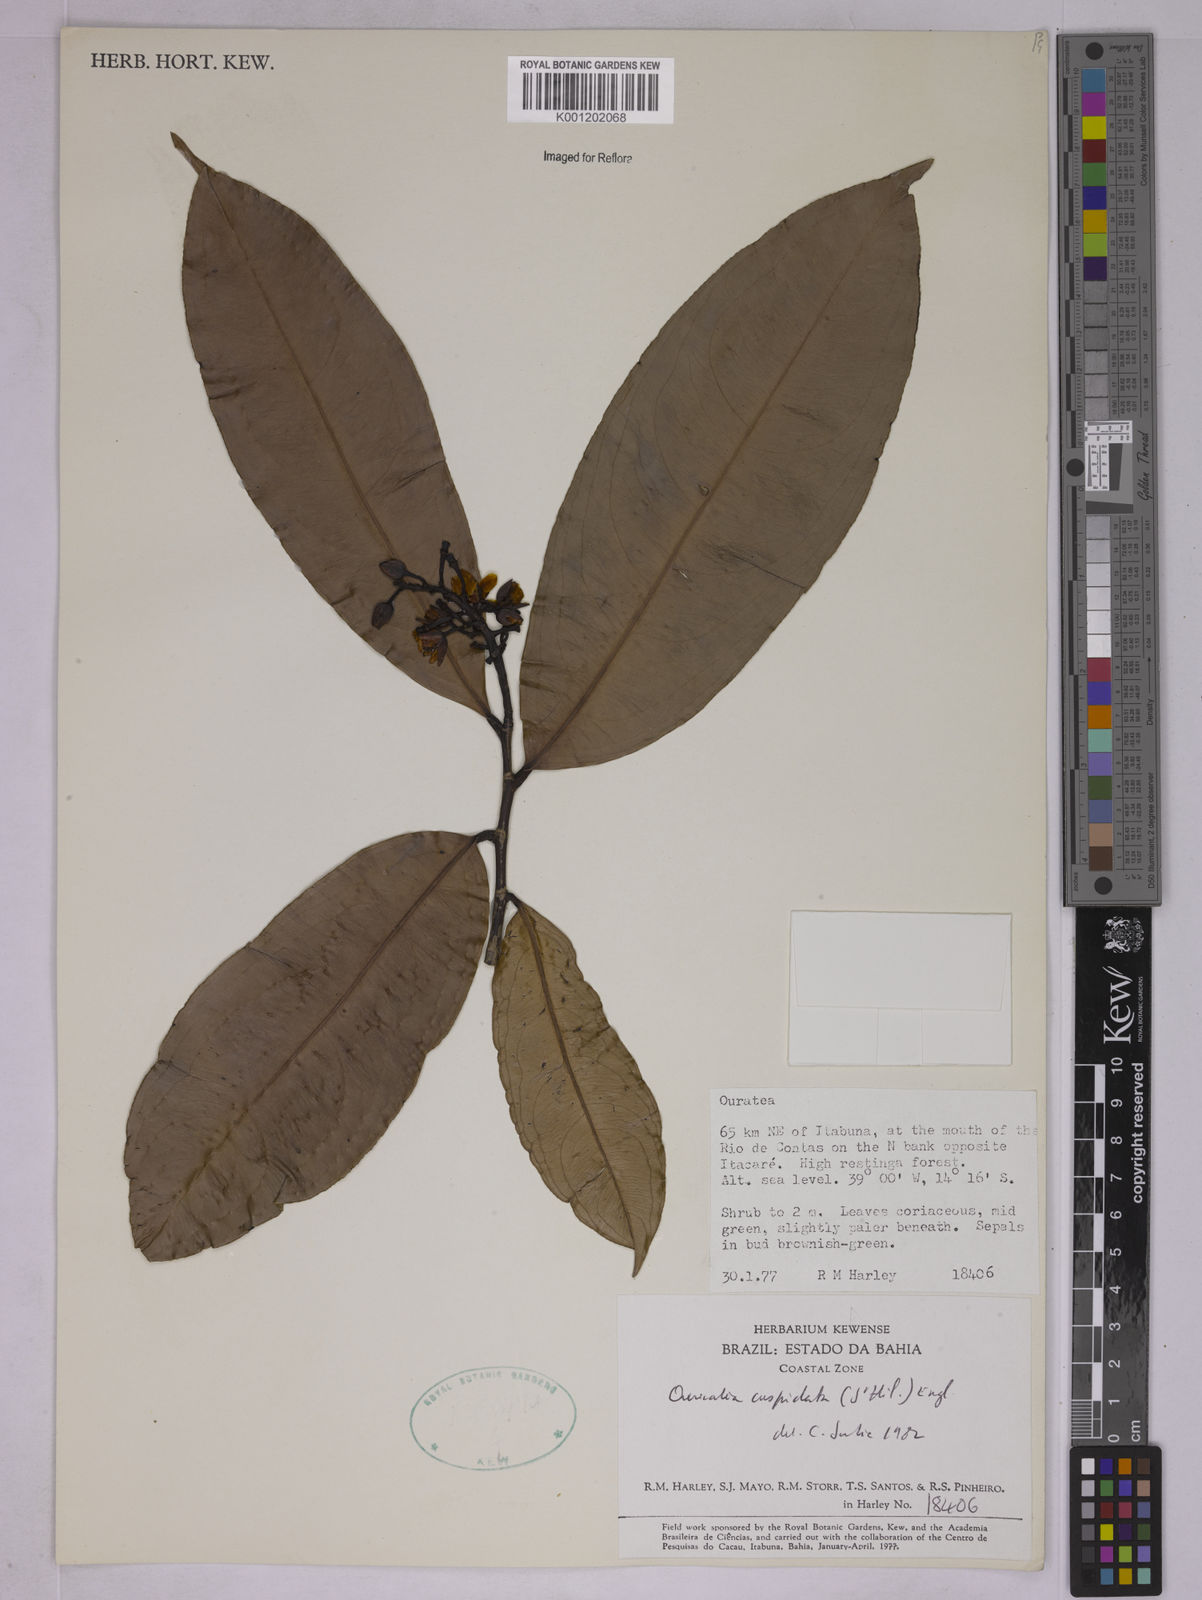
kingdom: Plantae
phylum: Tracheophyta
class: Magnoliopsida
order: Malpighiales
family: Ochnaceae
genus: Ouratea
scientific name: Ouratea grandifolia
